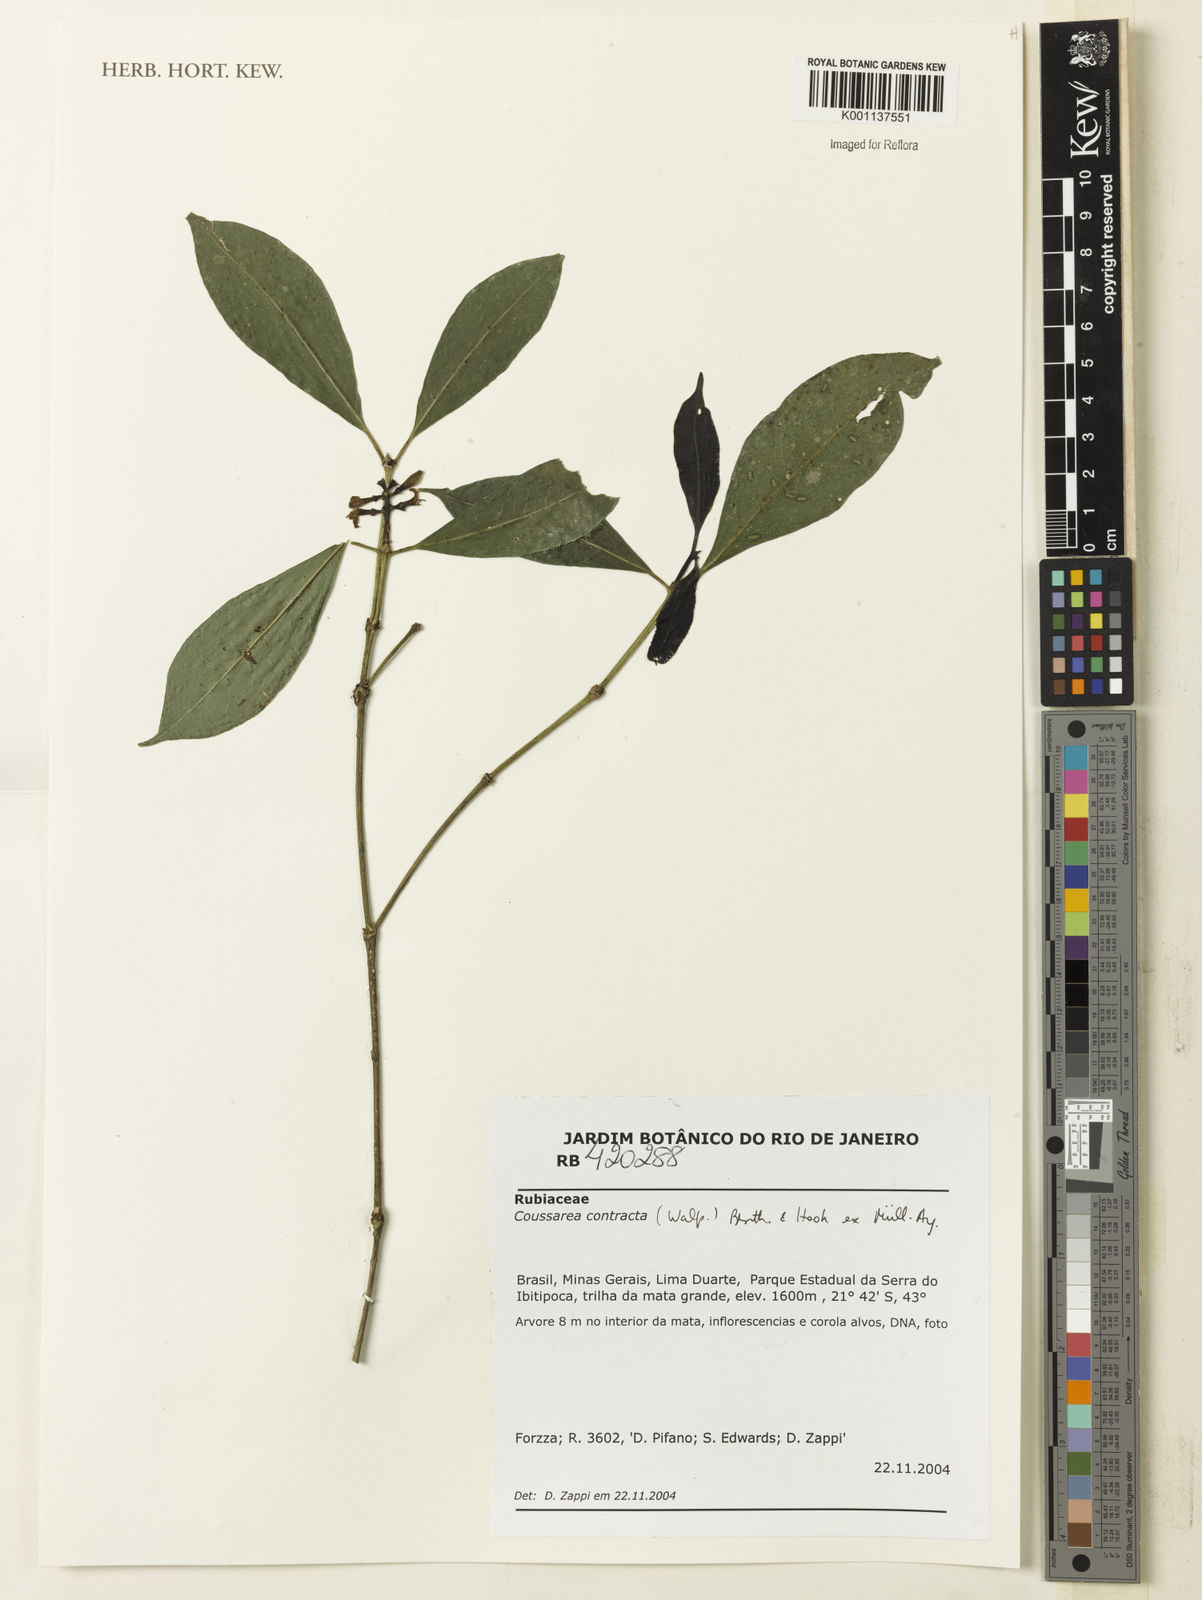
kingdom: Plantae
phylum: Tracheophyta
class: Magnoliopsida
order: Gentianales
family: Rubiaceae
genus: Coussarea
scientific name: Coussarea
